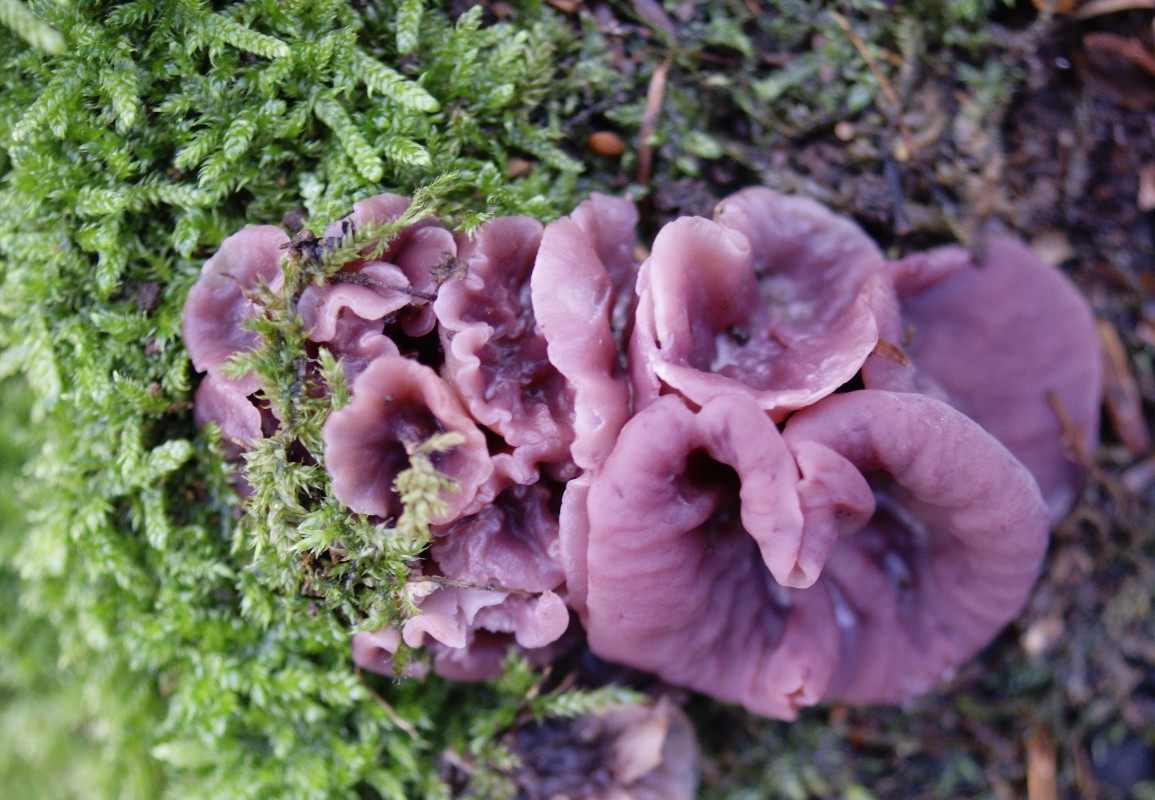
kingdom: Fungi
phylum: Ascomycota
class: Leotiomycetes
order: Helotiales
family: Gelatinodiscaceae
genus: Ascocoryne
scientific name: Ascocoryne cylichnium
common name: stor sejskive
